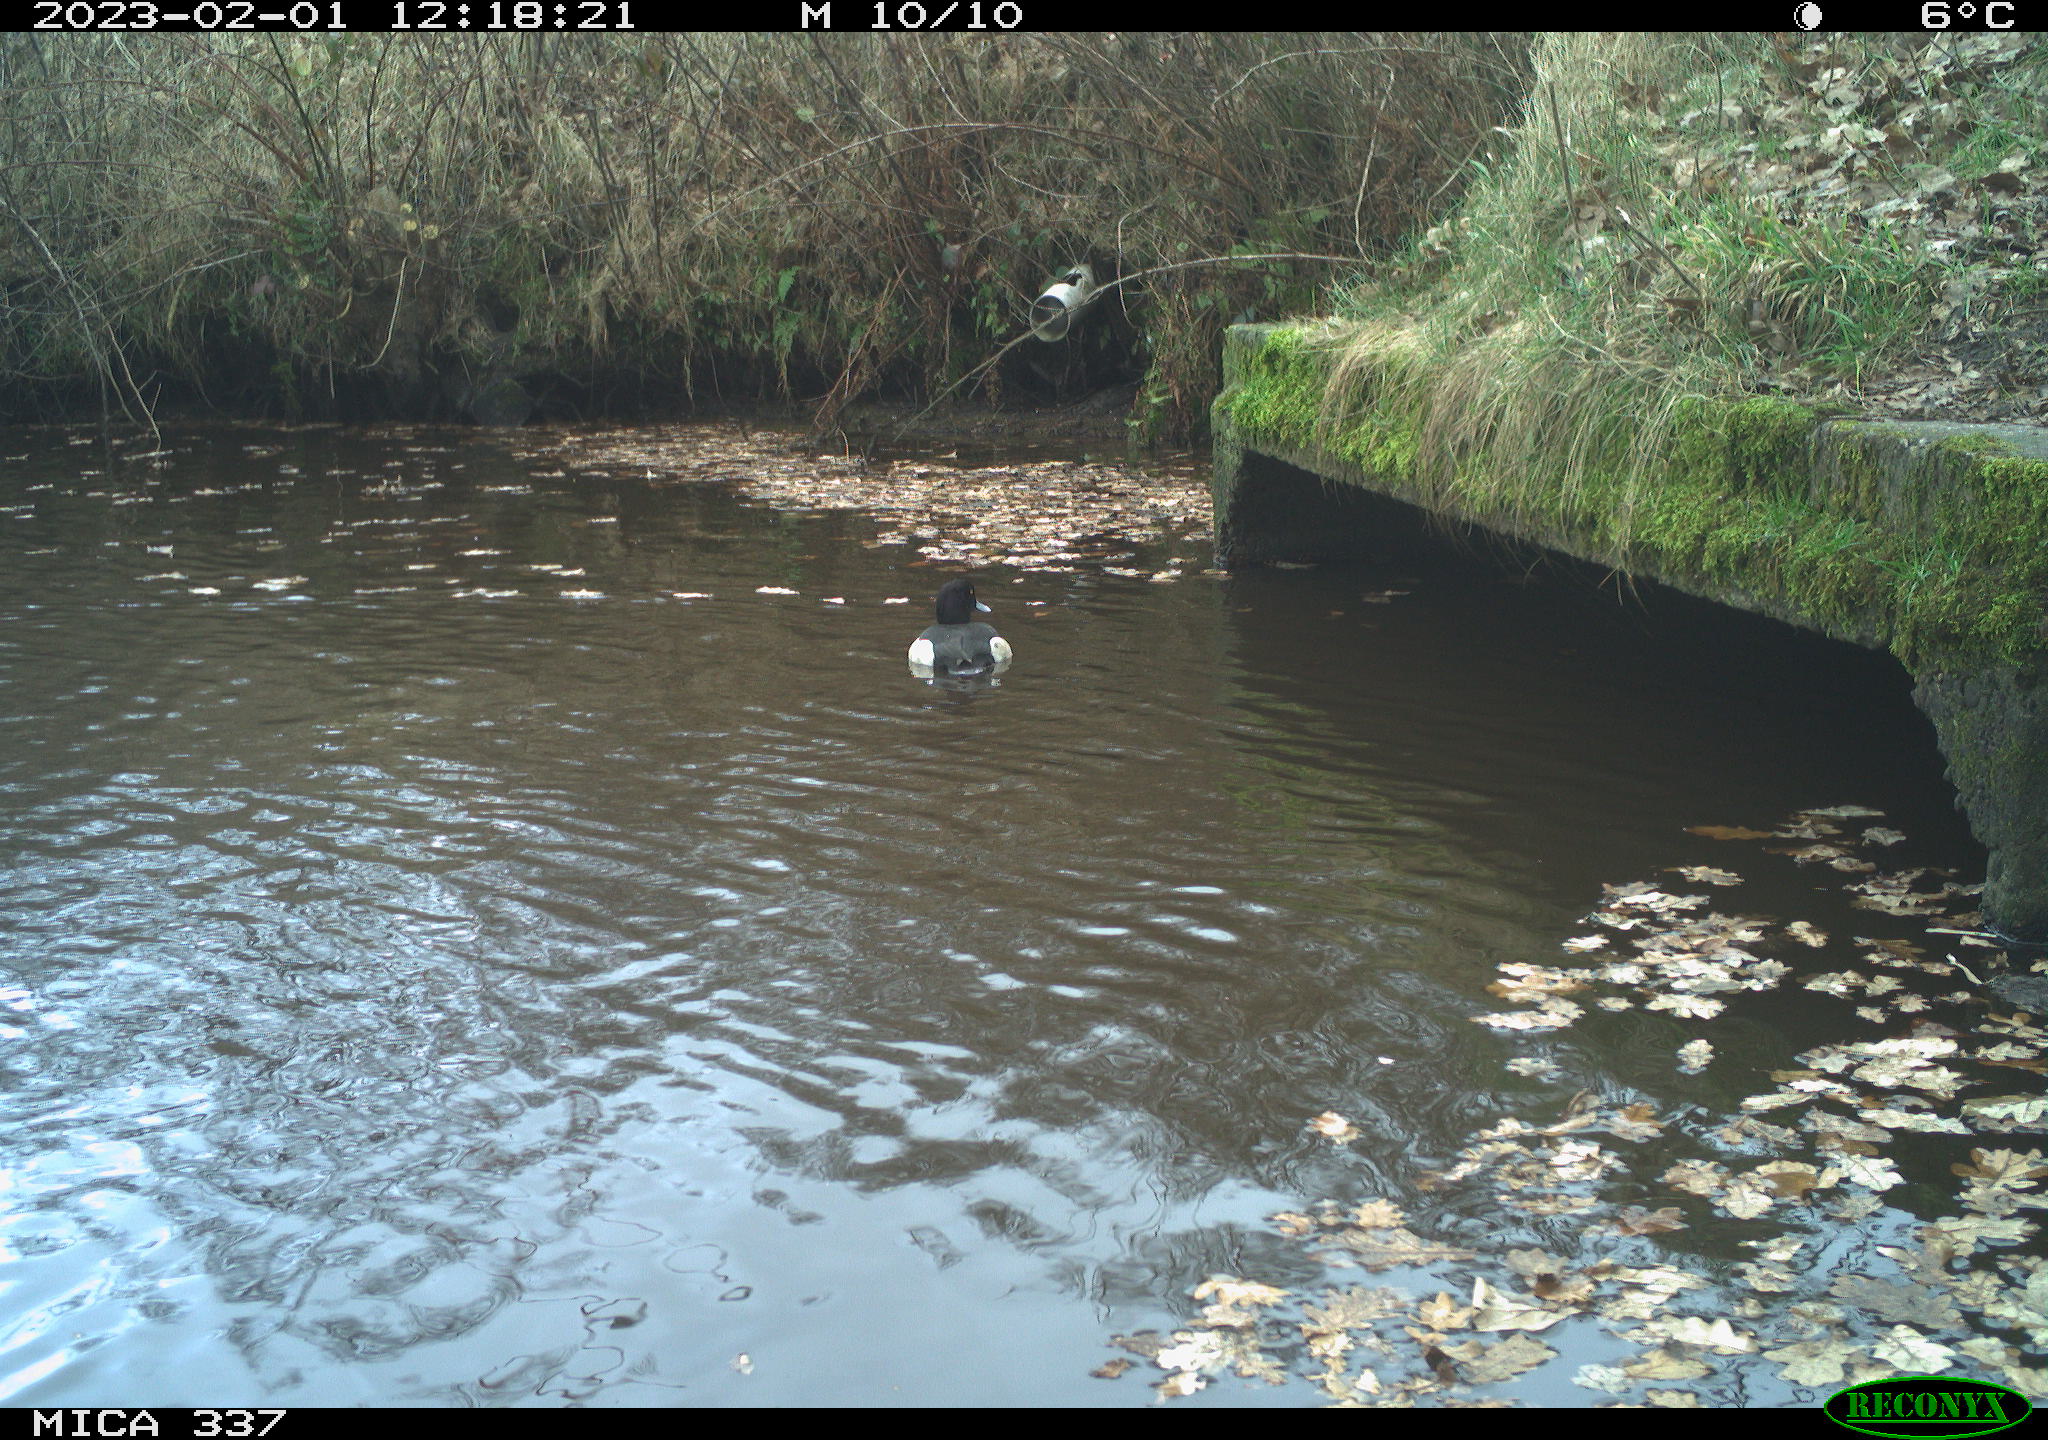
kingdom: Animalia
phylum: Chordata
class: Aves
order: Anseriformes
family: Anatidae
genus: Aythya
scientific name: Aythya fuligula
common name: Tufted duck
